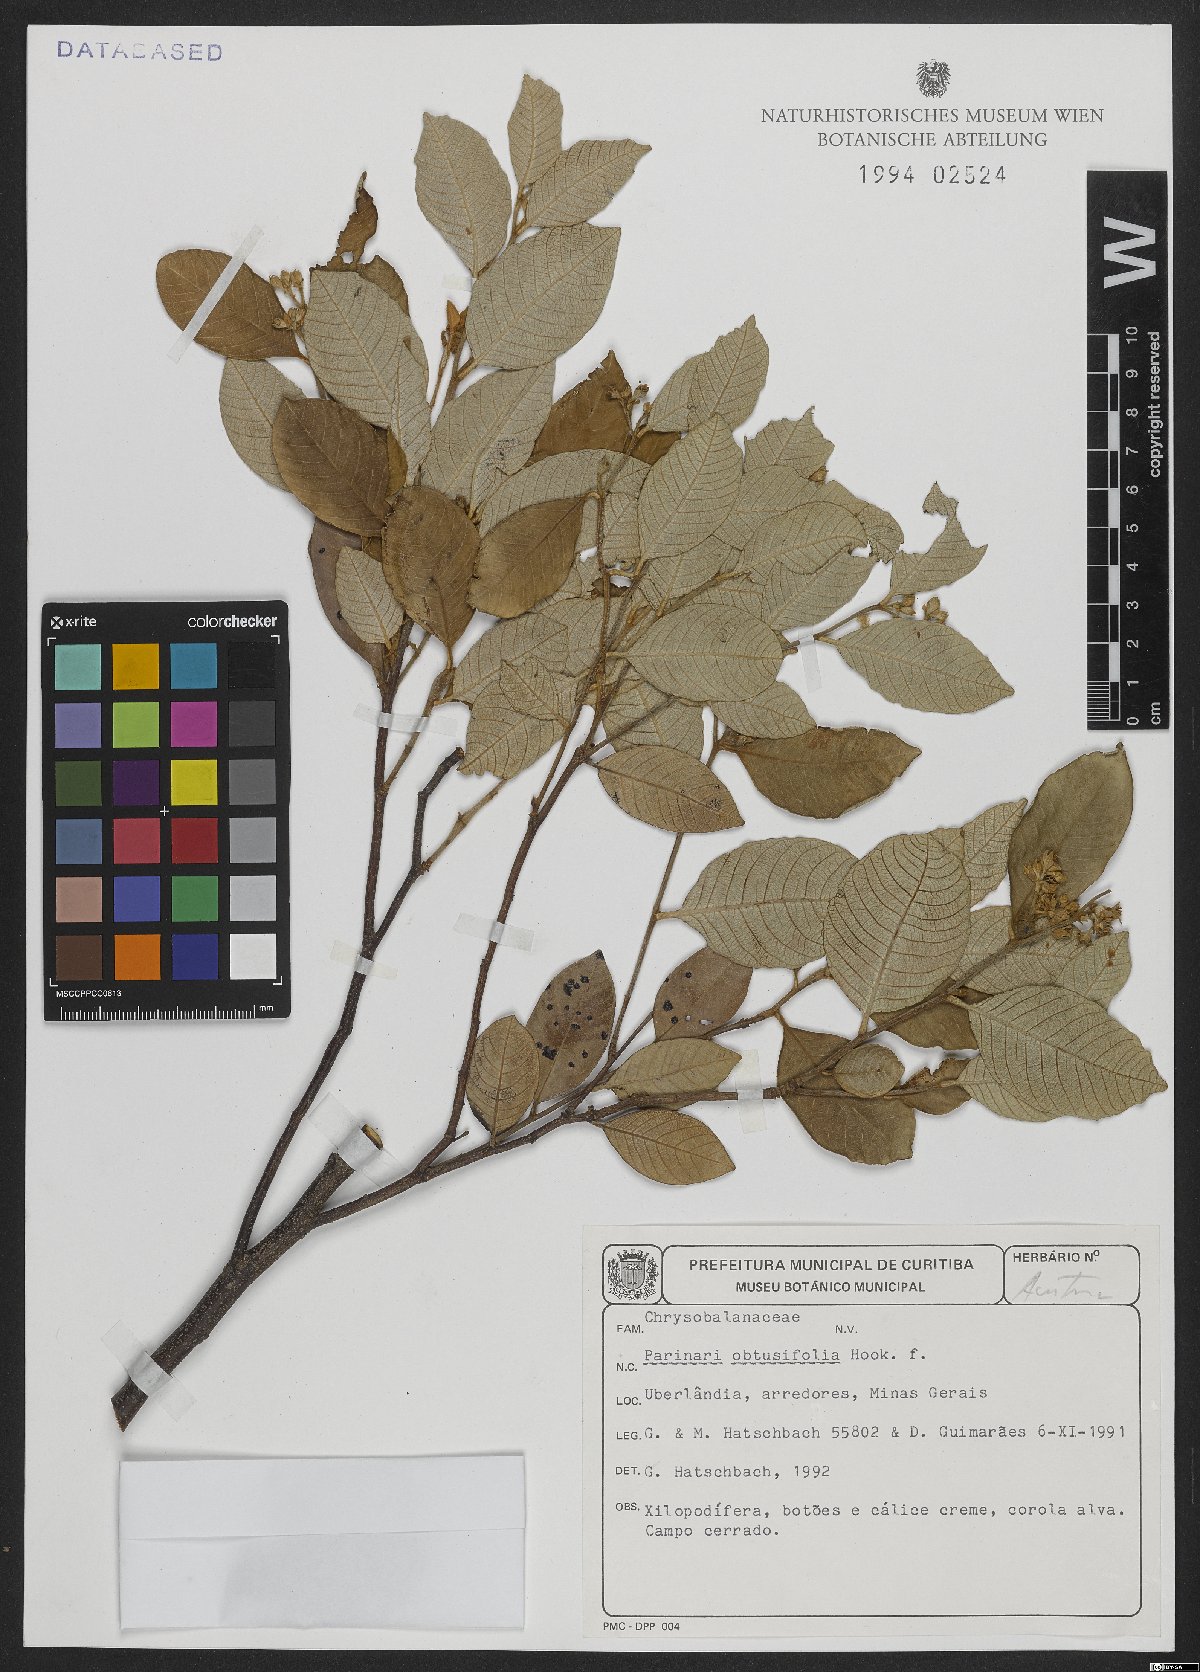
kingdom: Plantae
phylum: Tracheophyta
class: Magnoliopsida
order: Malpighiales
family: Chrysobalanaceae
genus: Parinari
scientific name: Parinari obtusifolium
